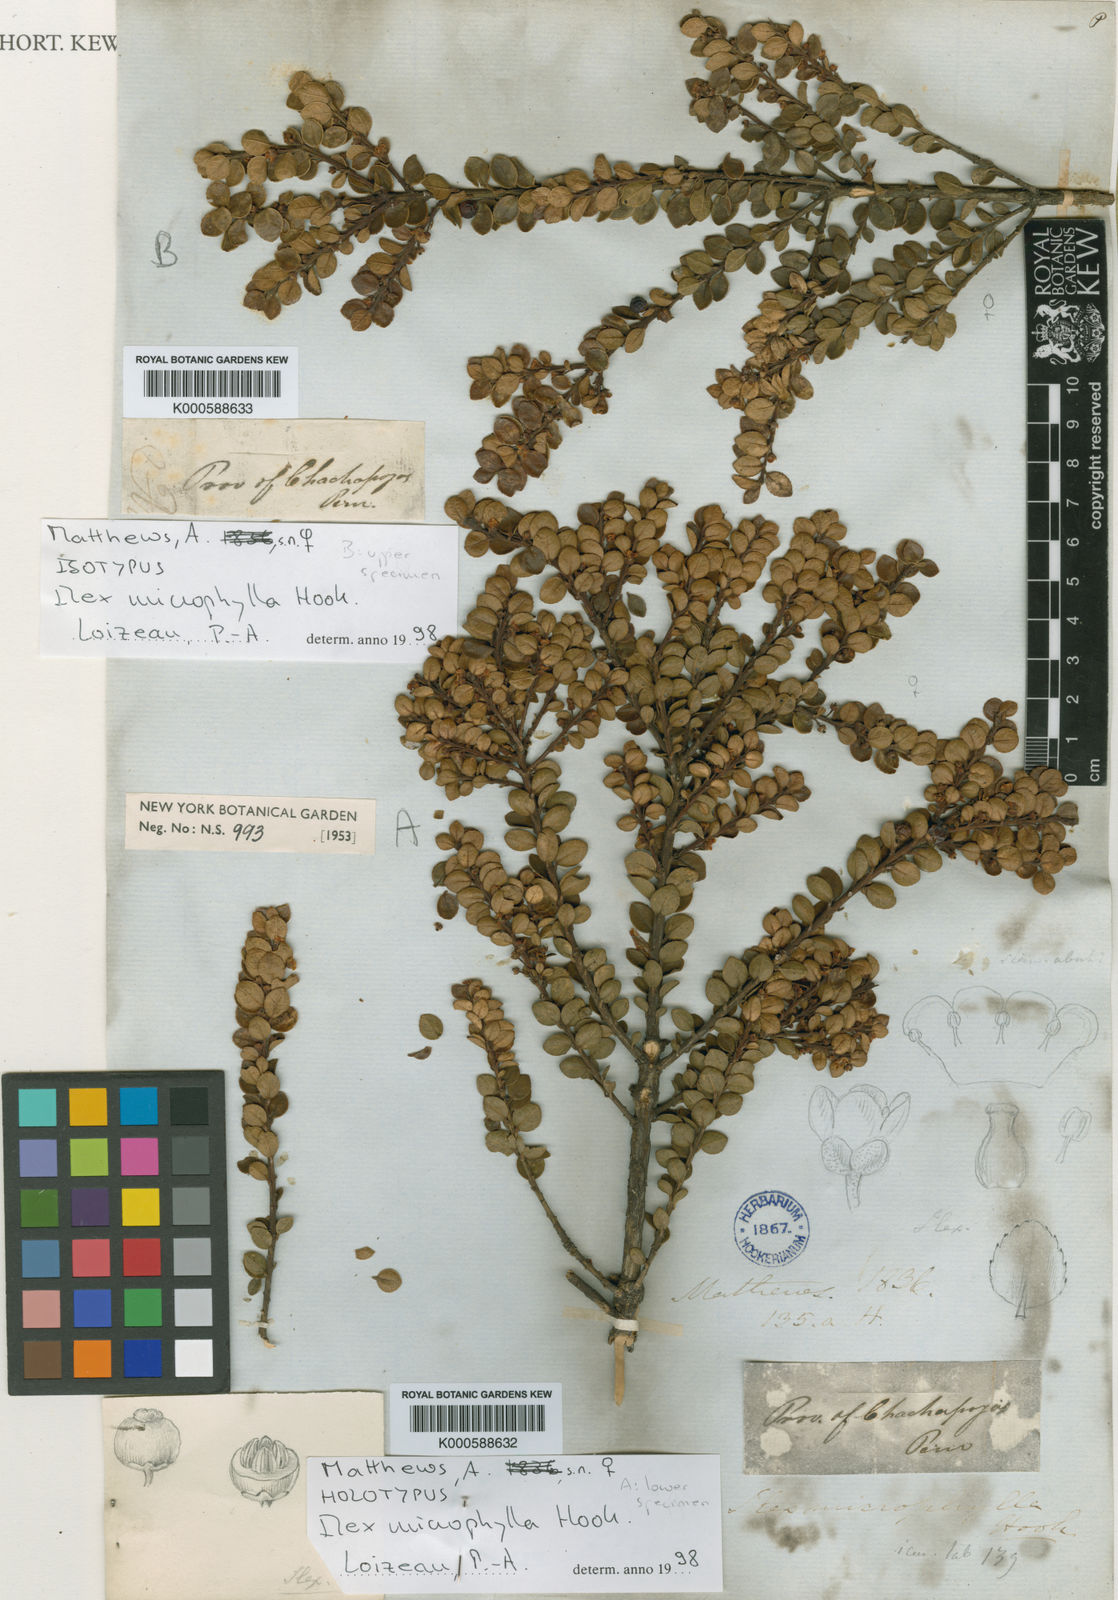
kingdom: Plantae
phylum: Tracheophyta
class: Magnoliopsida
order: Aquifoliales
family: Aquifoliaceae
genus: Ilex
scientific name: Ilex microphylla
